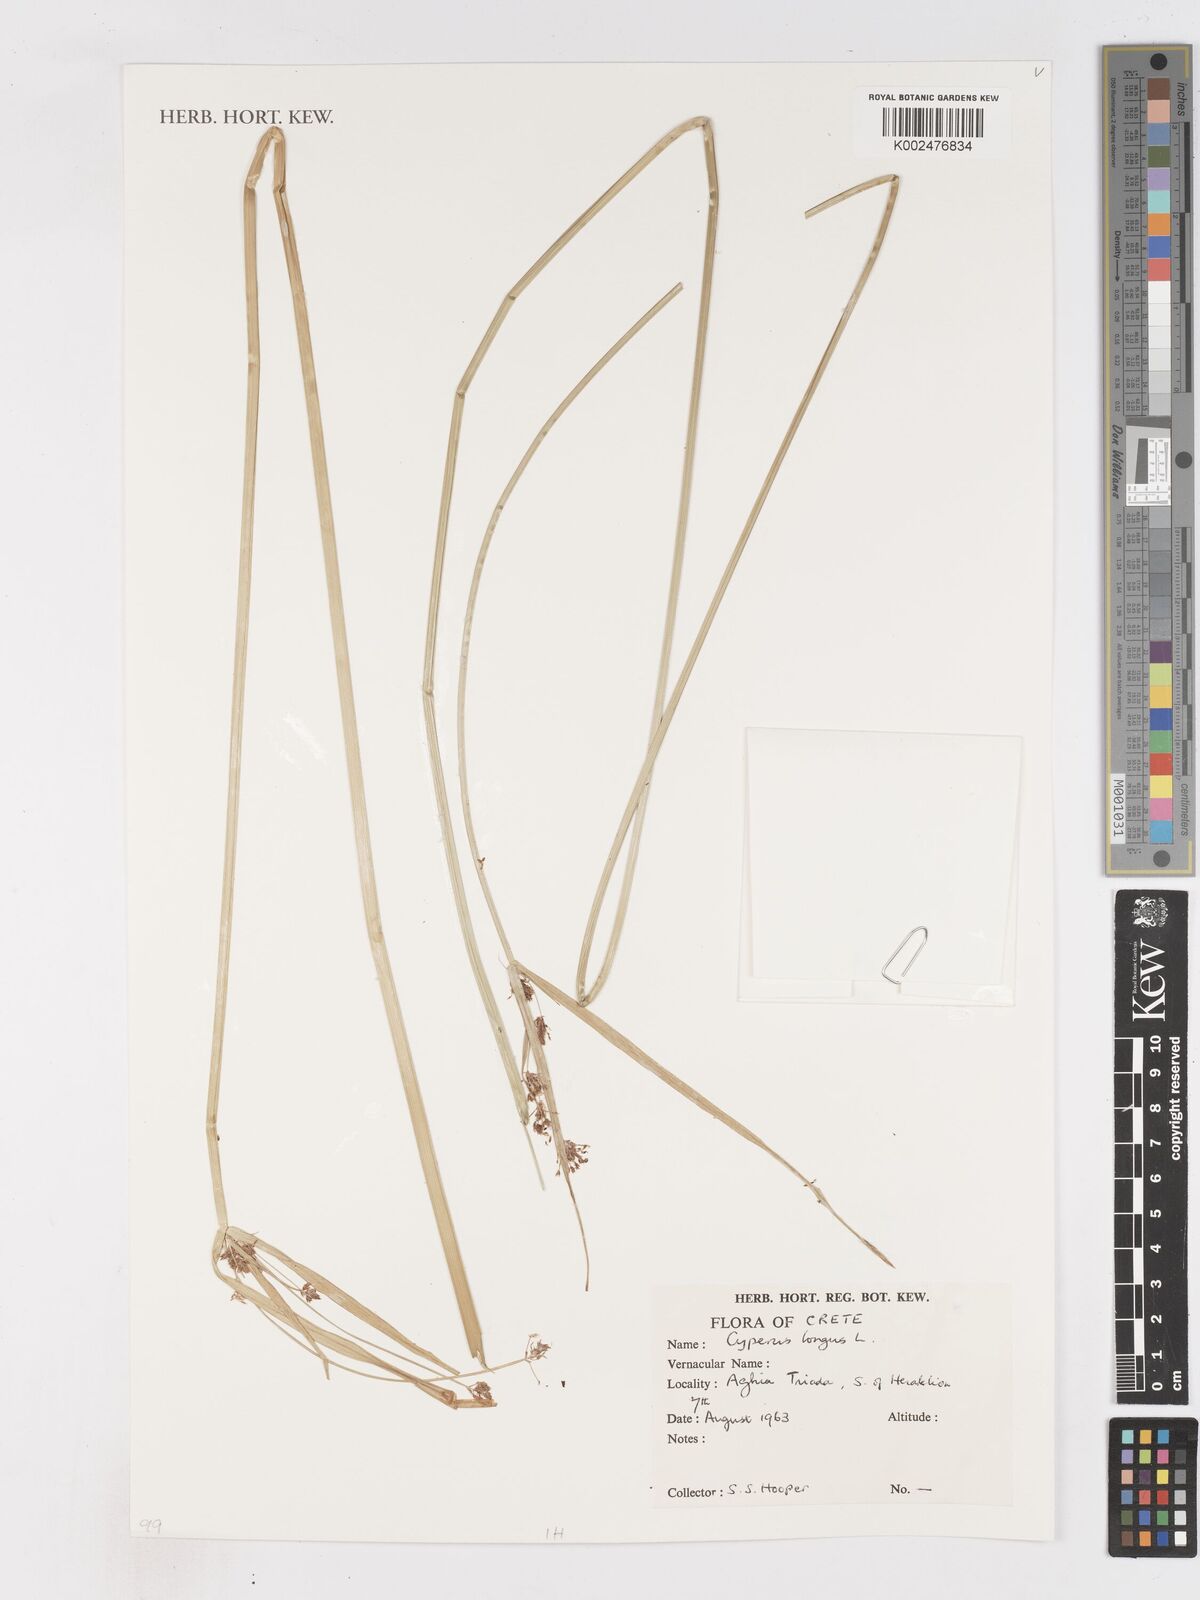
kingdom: Plantae
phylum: Tracheophyta
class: Liliopsida
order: Poales
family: Cyperaceae
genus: Cyperus
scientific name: Cyperus longus
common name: Galingale
